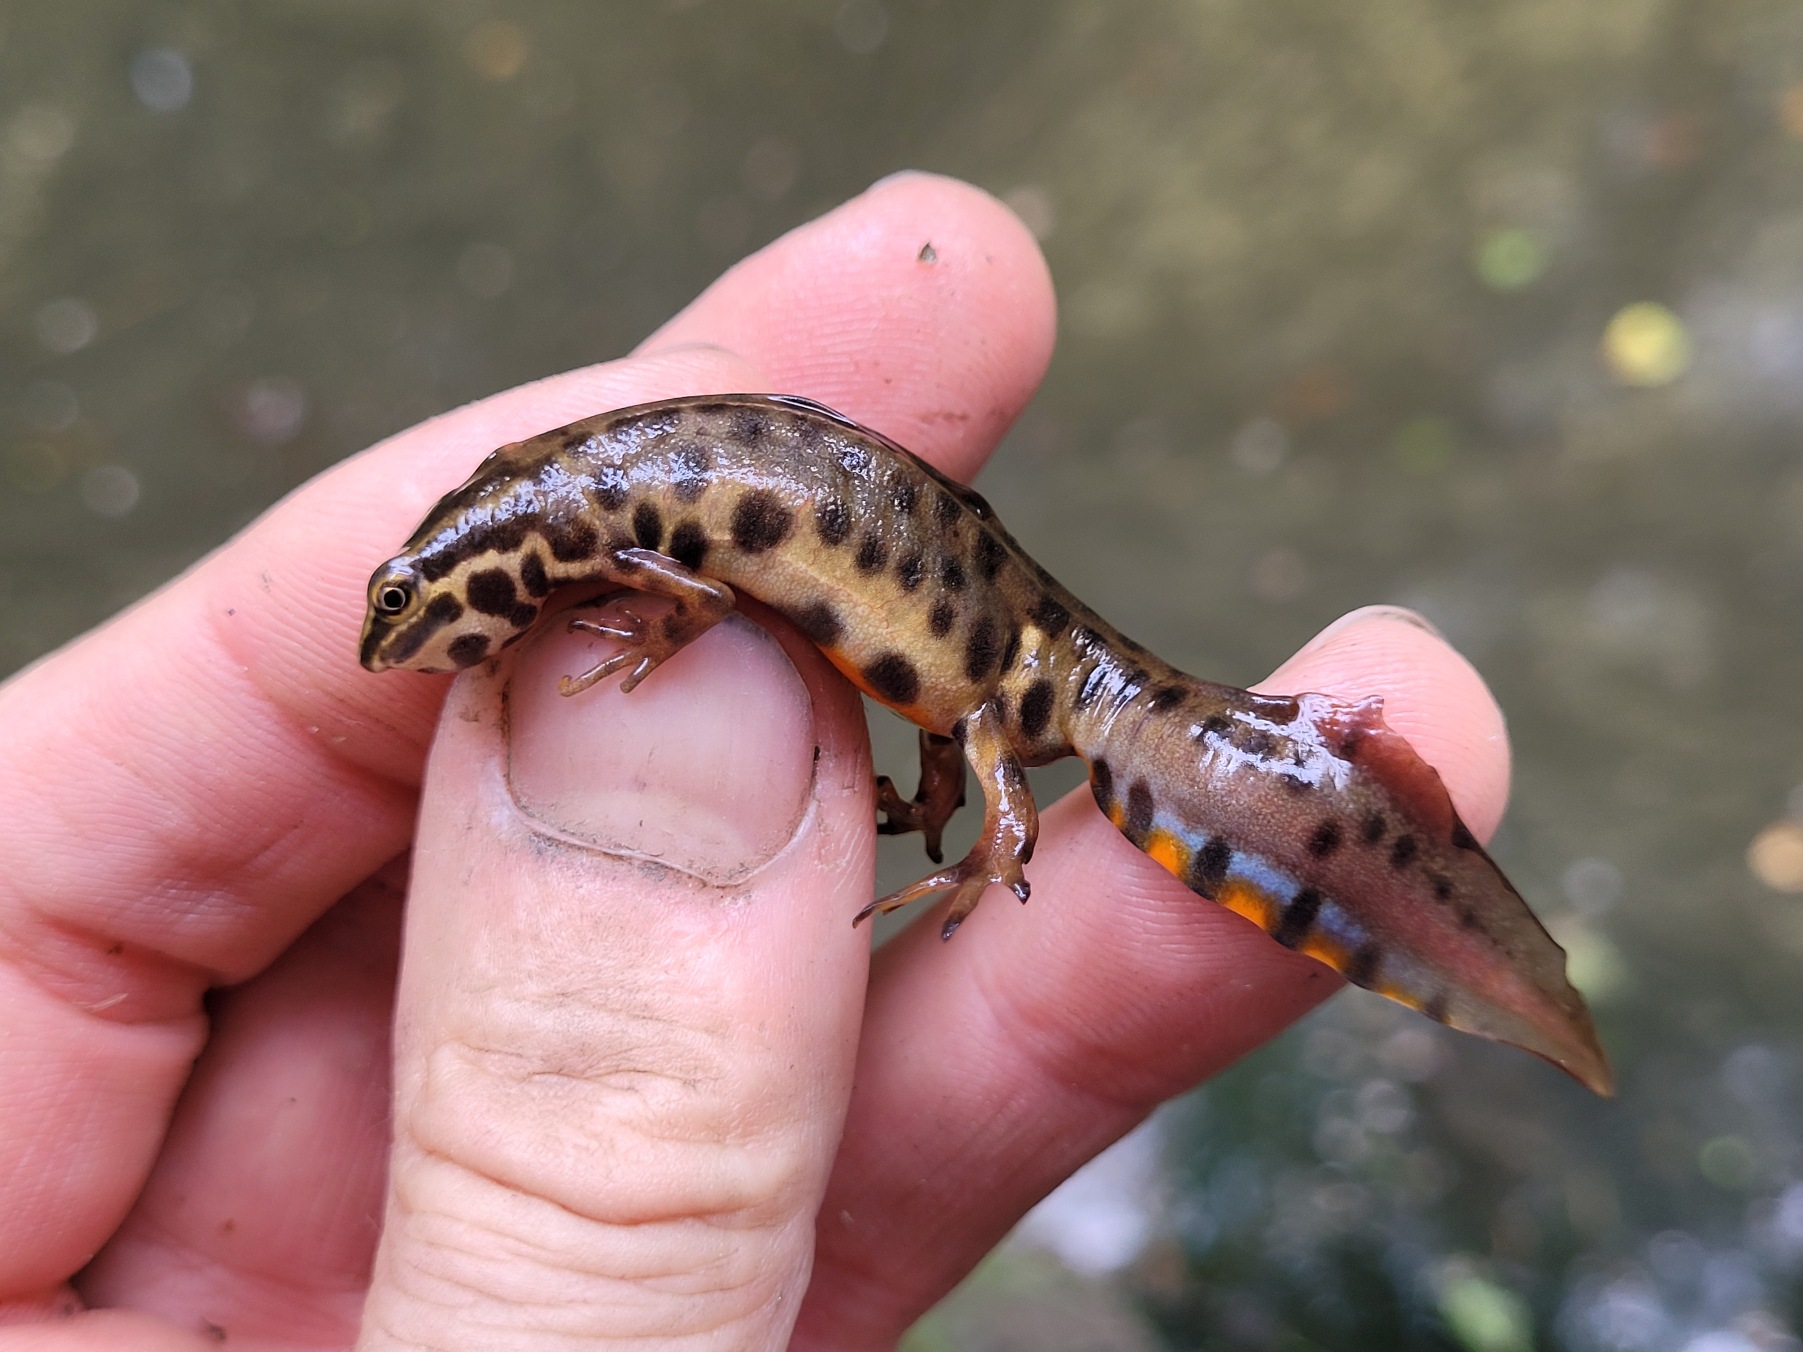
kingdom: Animalia
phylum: Chordata
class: Amphibia
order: Caudata
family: Salamandridae
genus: Lissotriton
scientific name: Lissotriton vulgaris
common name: Lille vandsalamander
